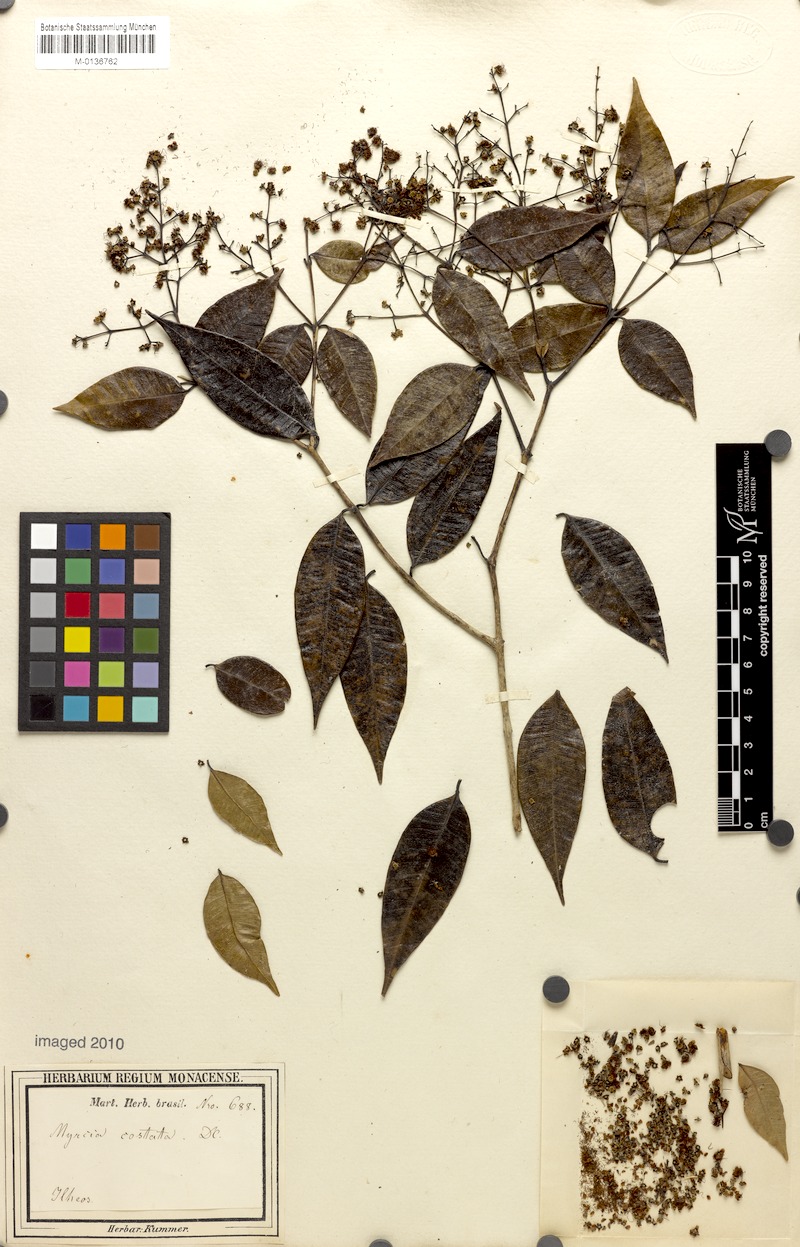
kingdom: Plantae
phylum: Tracheophyta
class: Magnoliopsida
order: Myrtales
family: Myrtaceae
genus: Myrcia
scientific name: Myrcia splendens
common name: Surinam cherry
